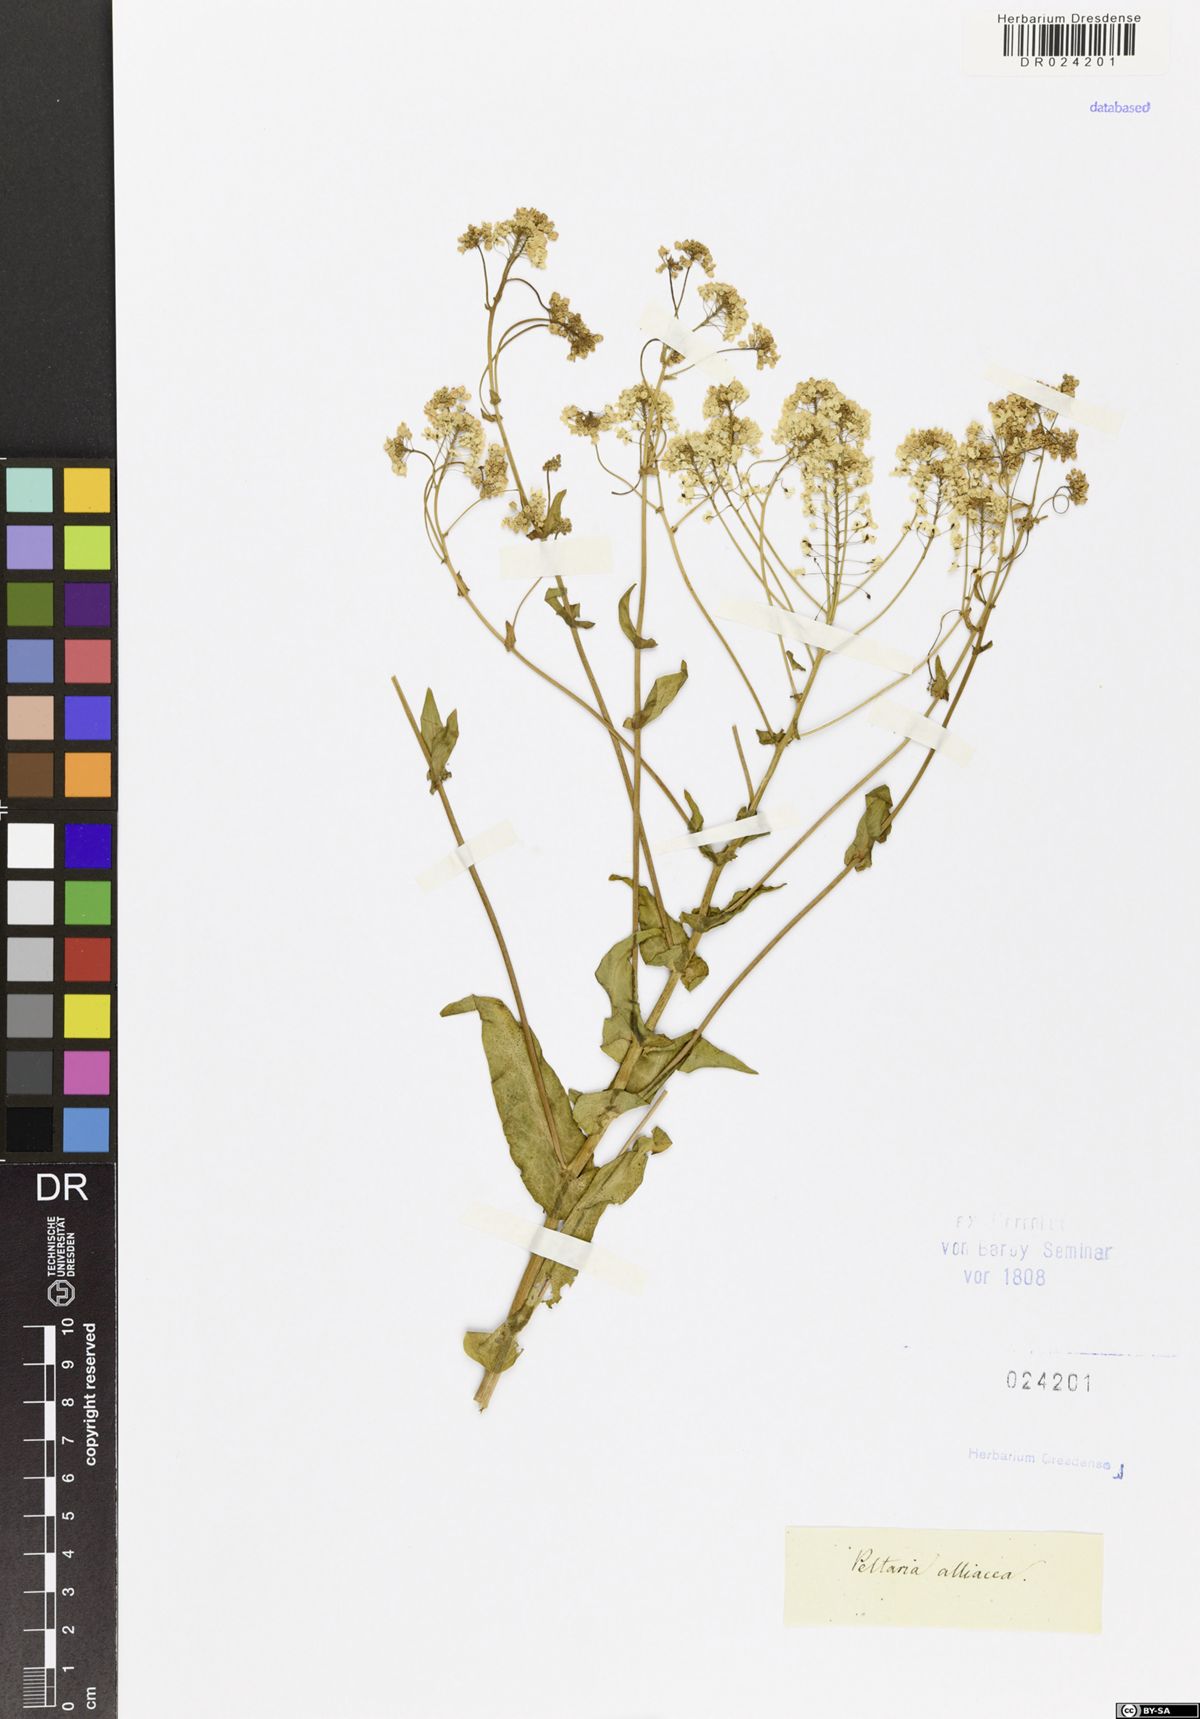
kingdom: Plantae
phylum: Tracheophyta
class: Magnoliopsida
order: Brassicales
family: Brassicaceae
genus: Peltaria
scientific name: Peltaria alliacea
